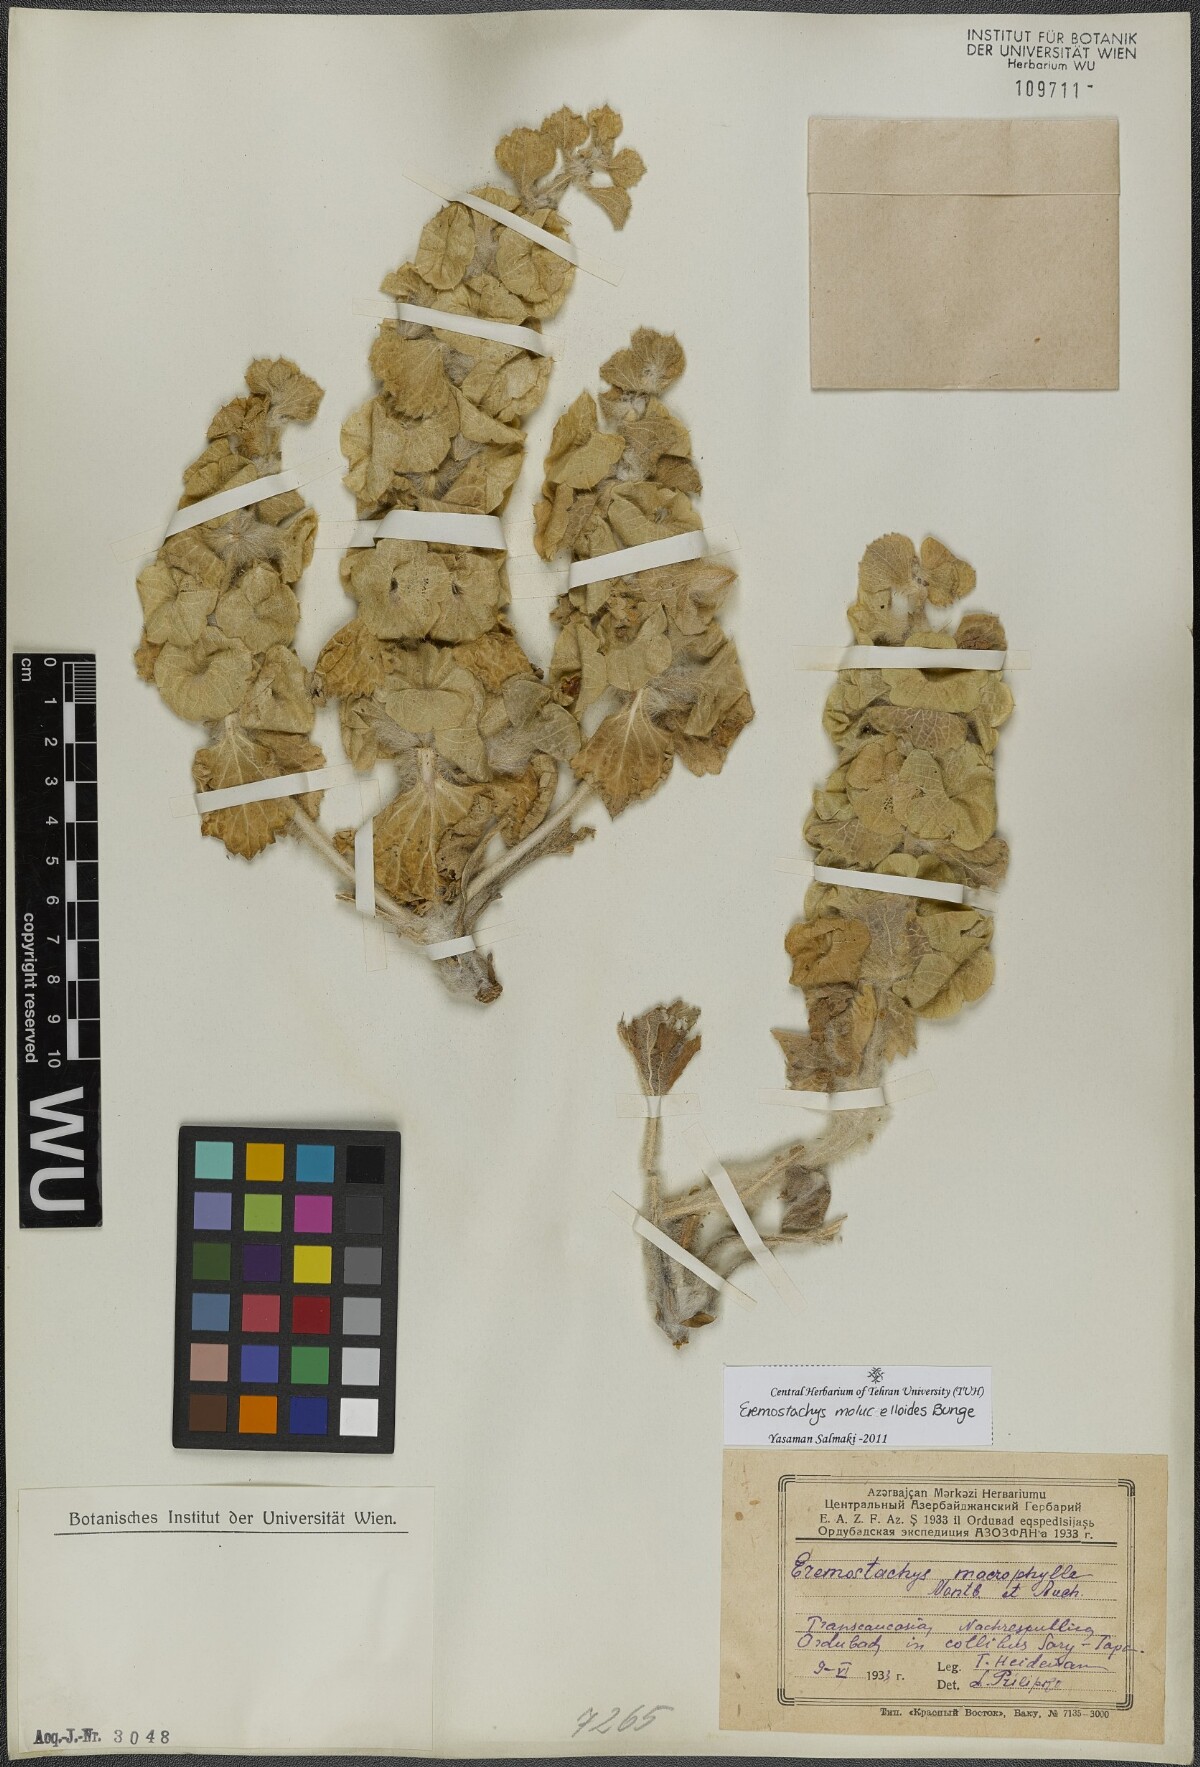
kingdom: Plantae
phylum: Tracheophyta
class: Magnoliopsida
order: Lamiales
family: Lamiaceae
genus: Phlomoides
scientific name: Phlomoides molucelloides
